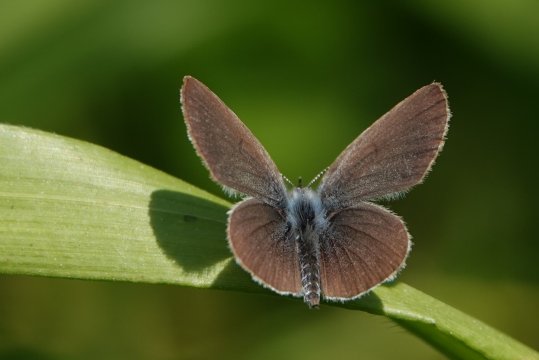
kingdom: Animalia
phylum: Arthropoda
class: Insecta
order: Lepidoptera
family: Lycaenidae
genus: Cupido
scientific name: Cupido minimus
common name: Small Blue
